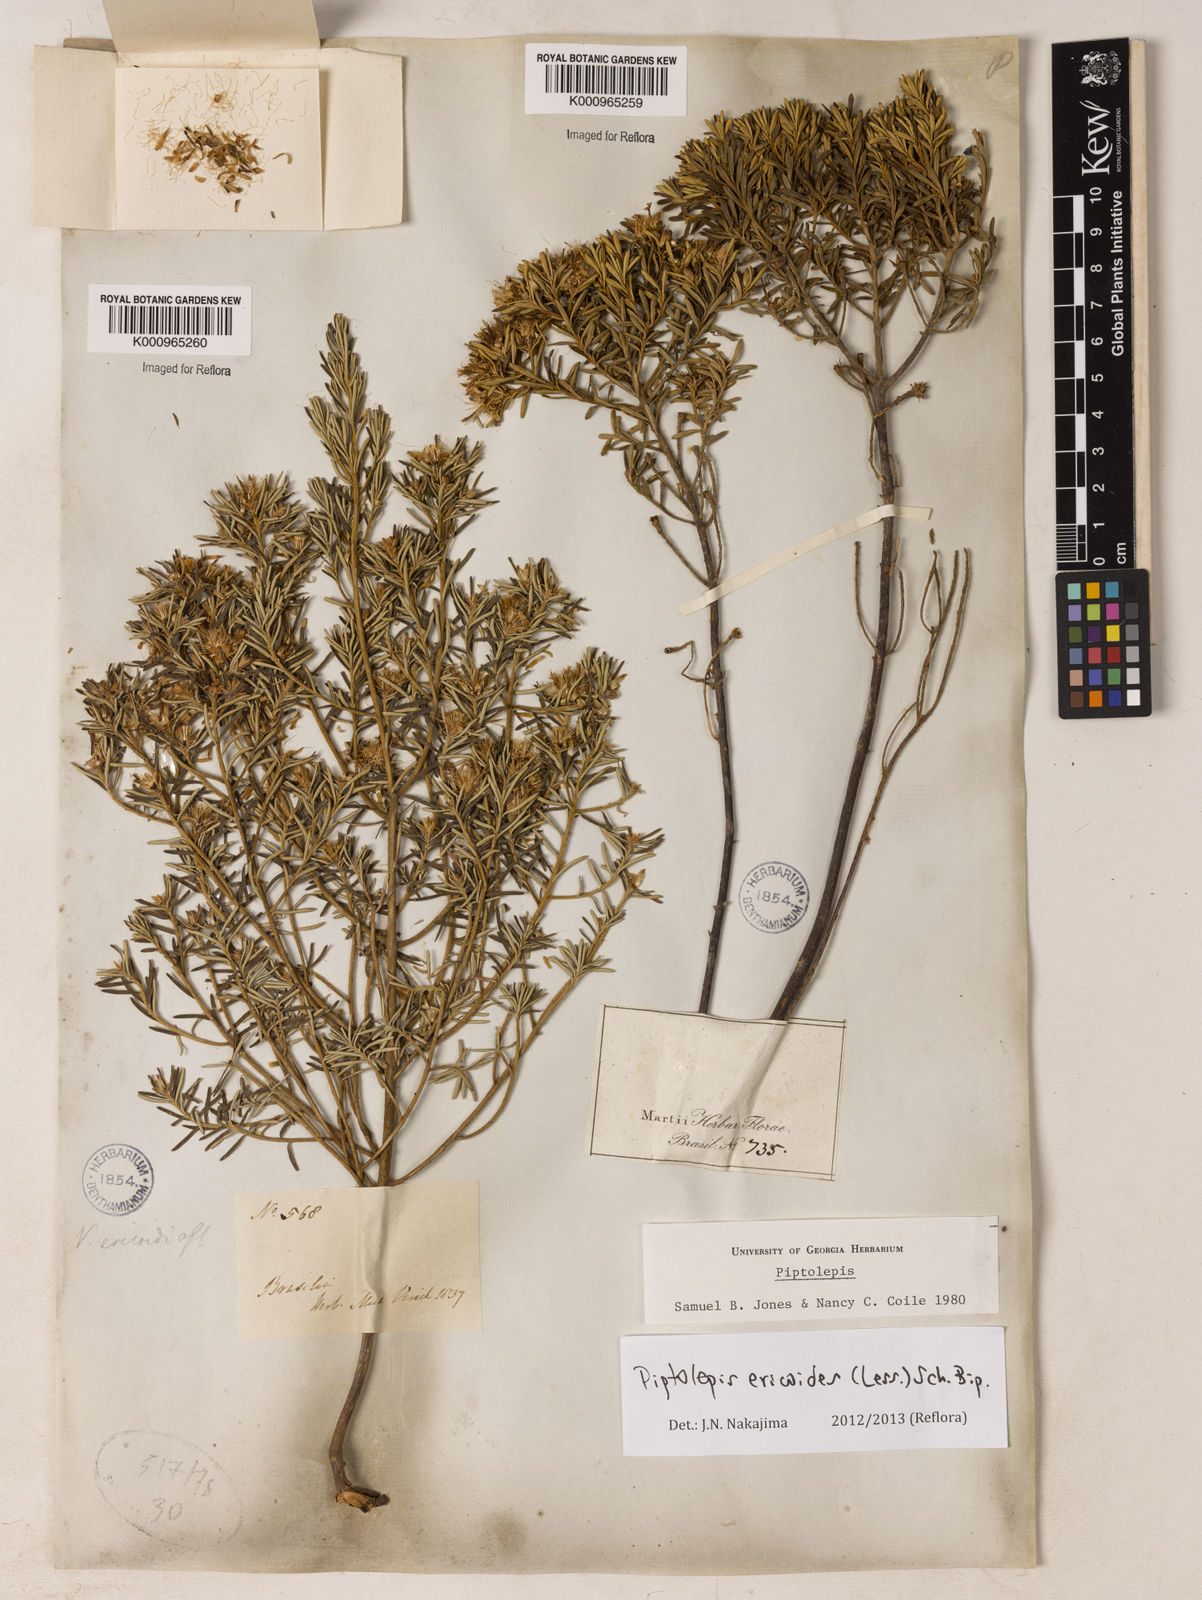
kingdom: Plantae
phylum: Tracheophyta
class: Magnoliopsida
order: Asterales
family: Asteraceae
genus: Piptolepis
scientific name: Piptolepis ericoides
